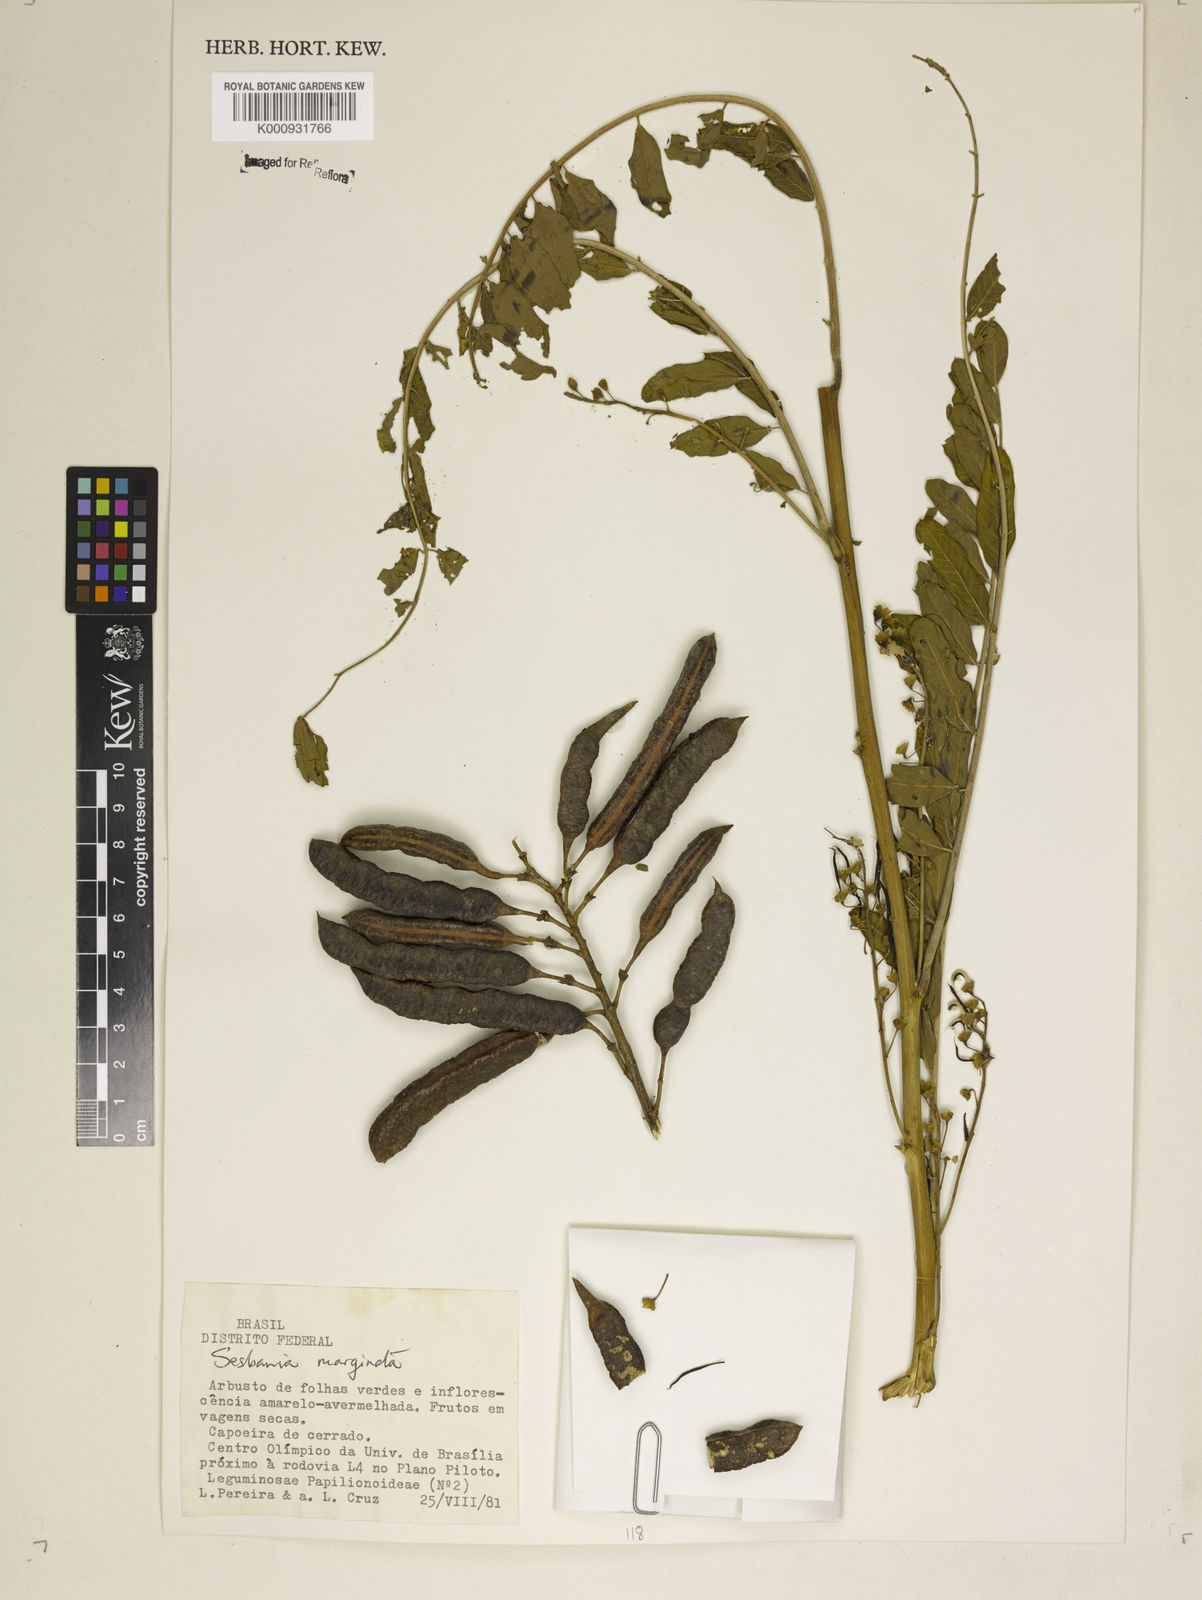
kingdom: Plantae
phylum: Tracheophyta
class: Magnoliopsida
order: Fabales
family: Fabaceae
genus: Sesbania
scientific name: Sesbania
